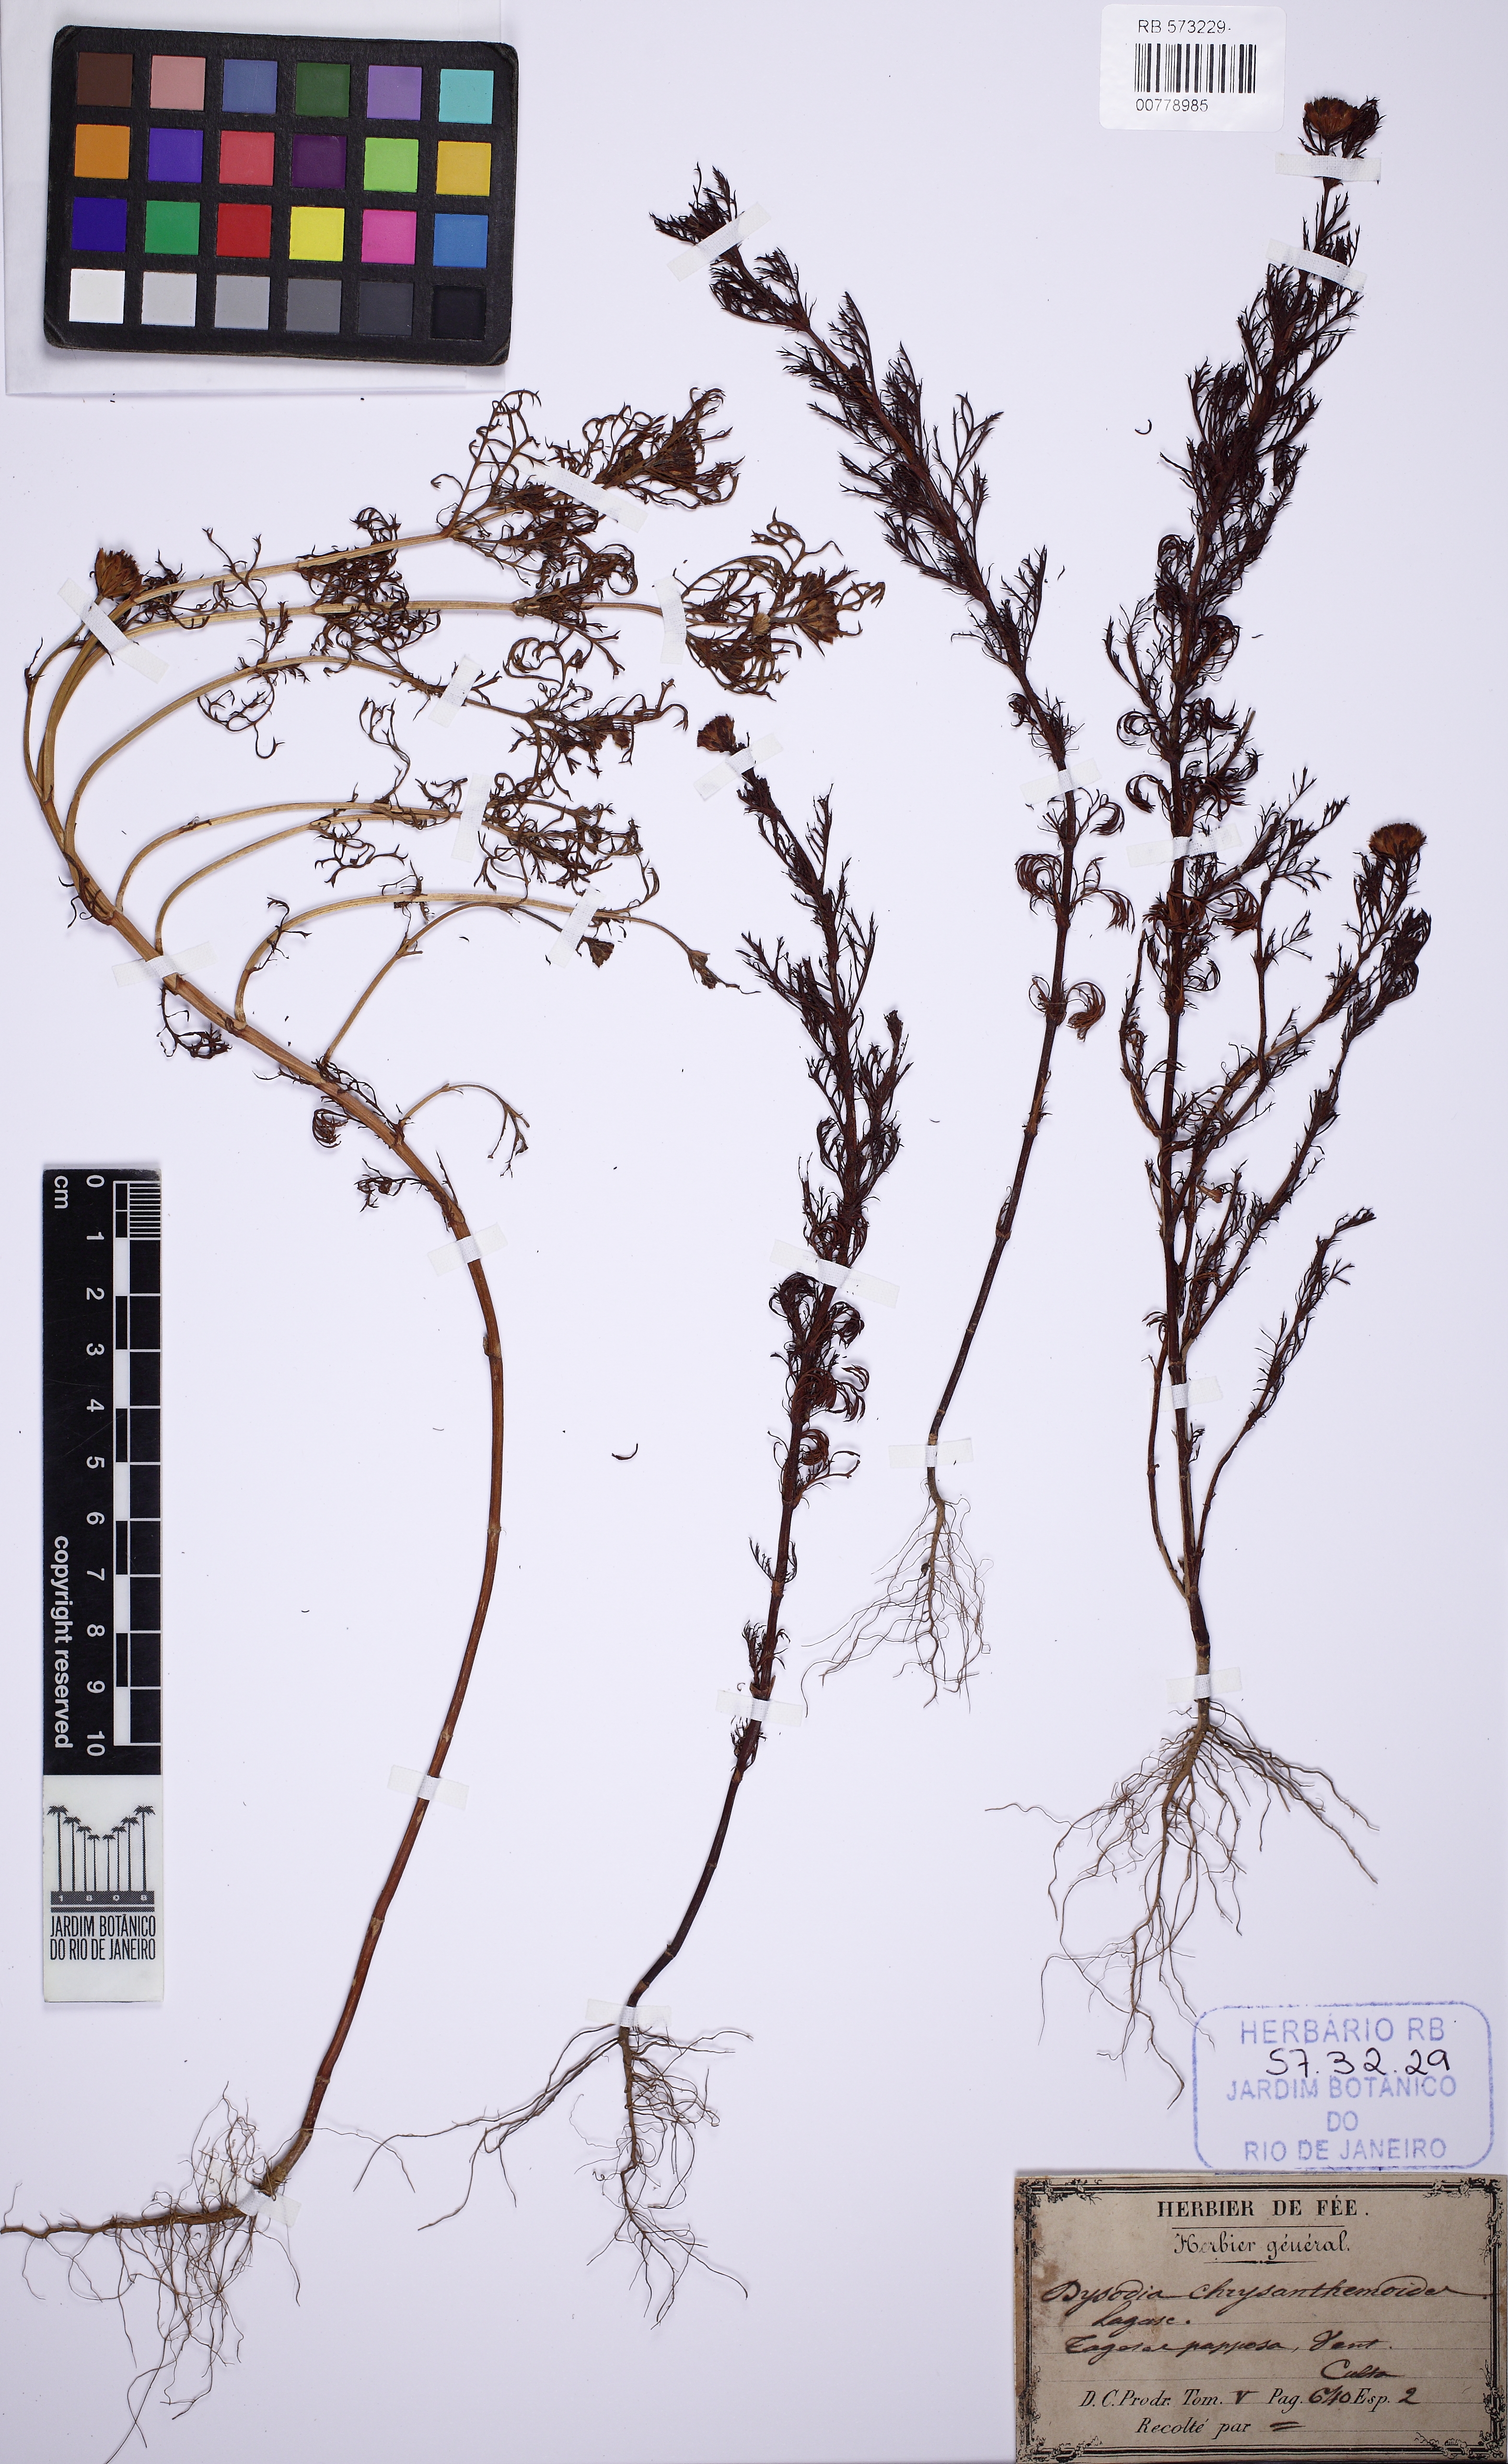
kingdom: Plantae
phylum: Tracheophyta
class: Magnoliopsida
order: Asterales
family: Asteraceae
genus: Dyssodia
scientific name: Dyssodia papposa
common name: Dogweed
